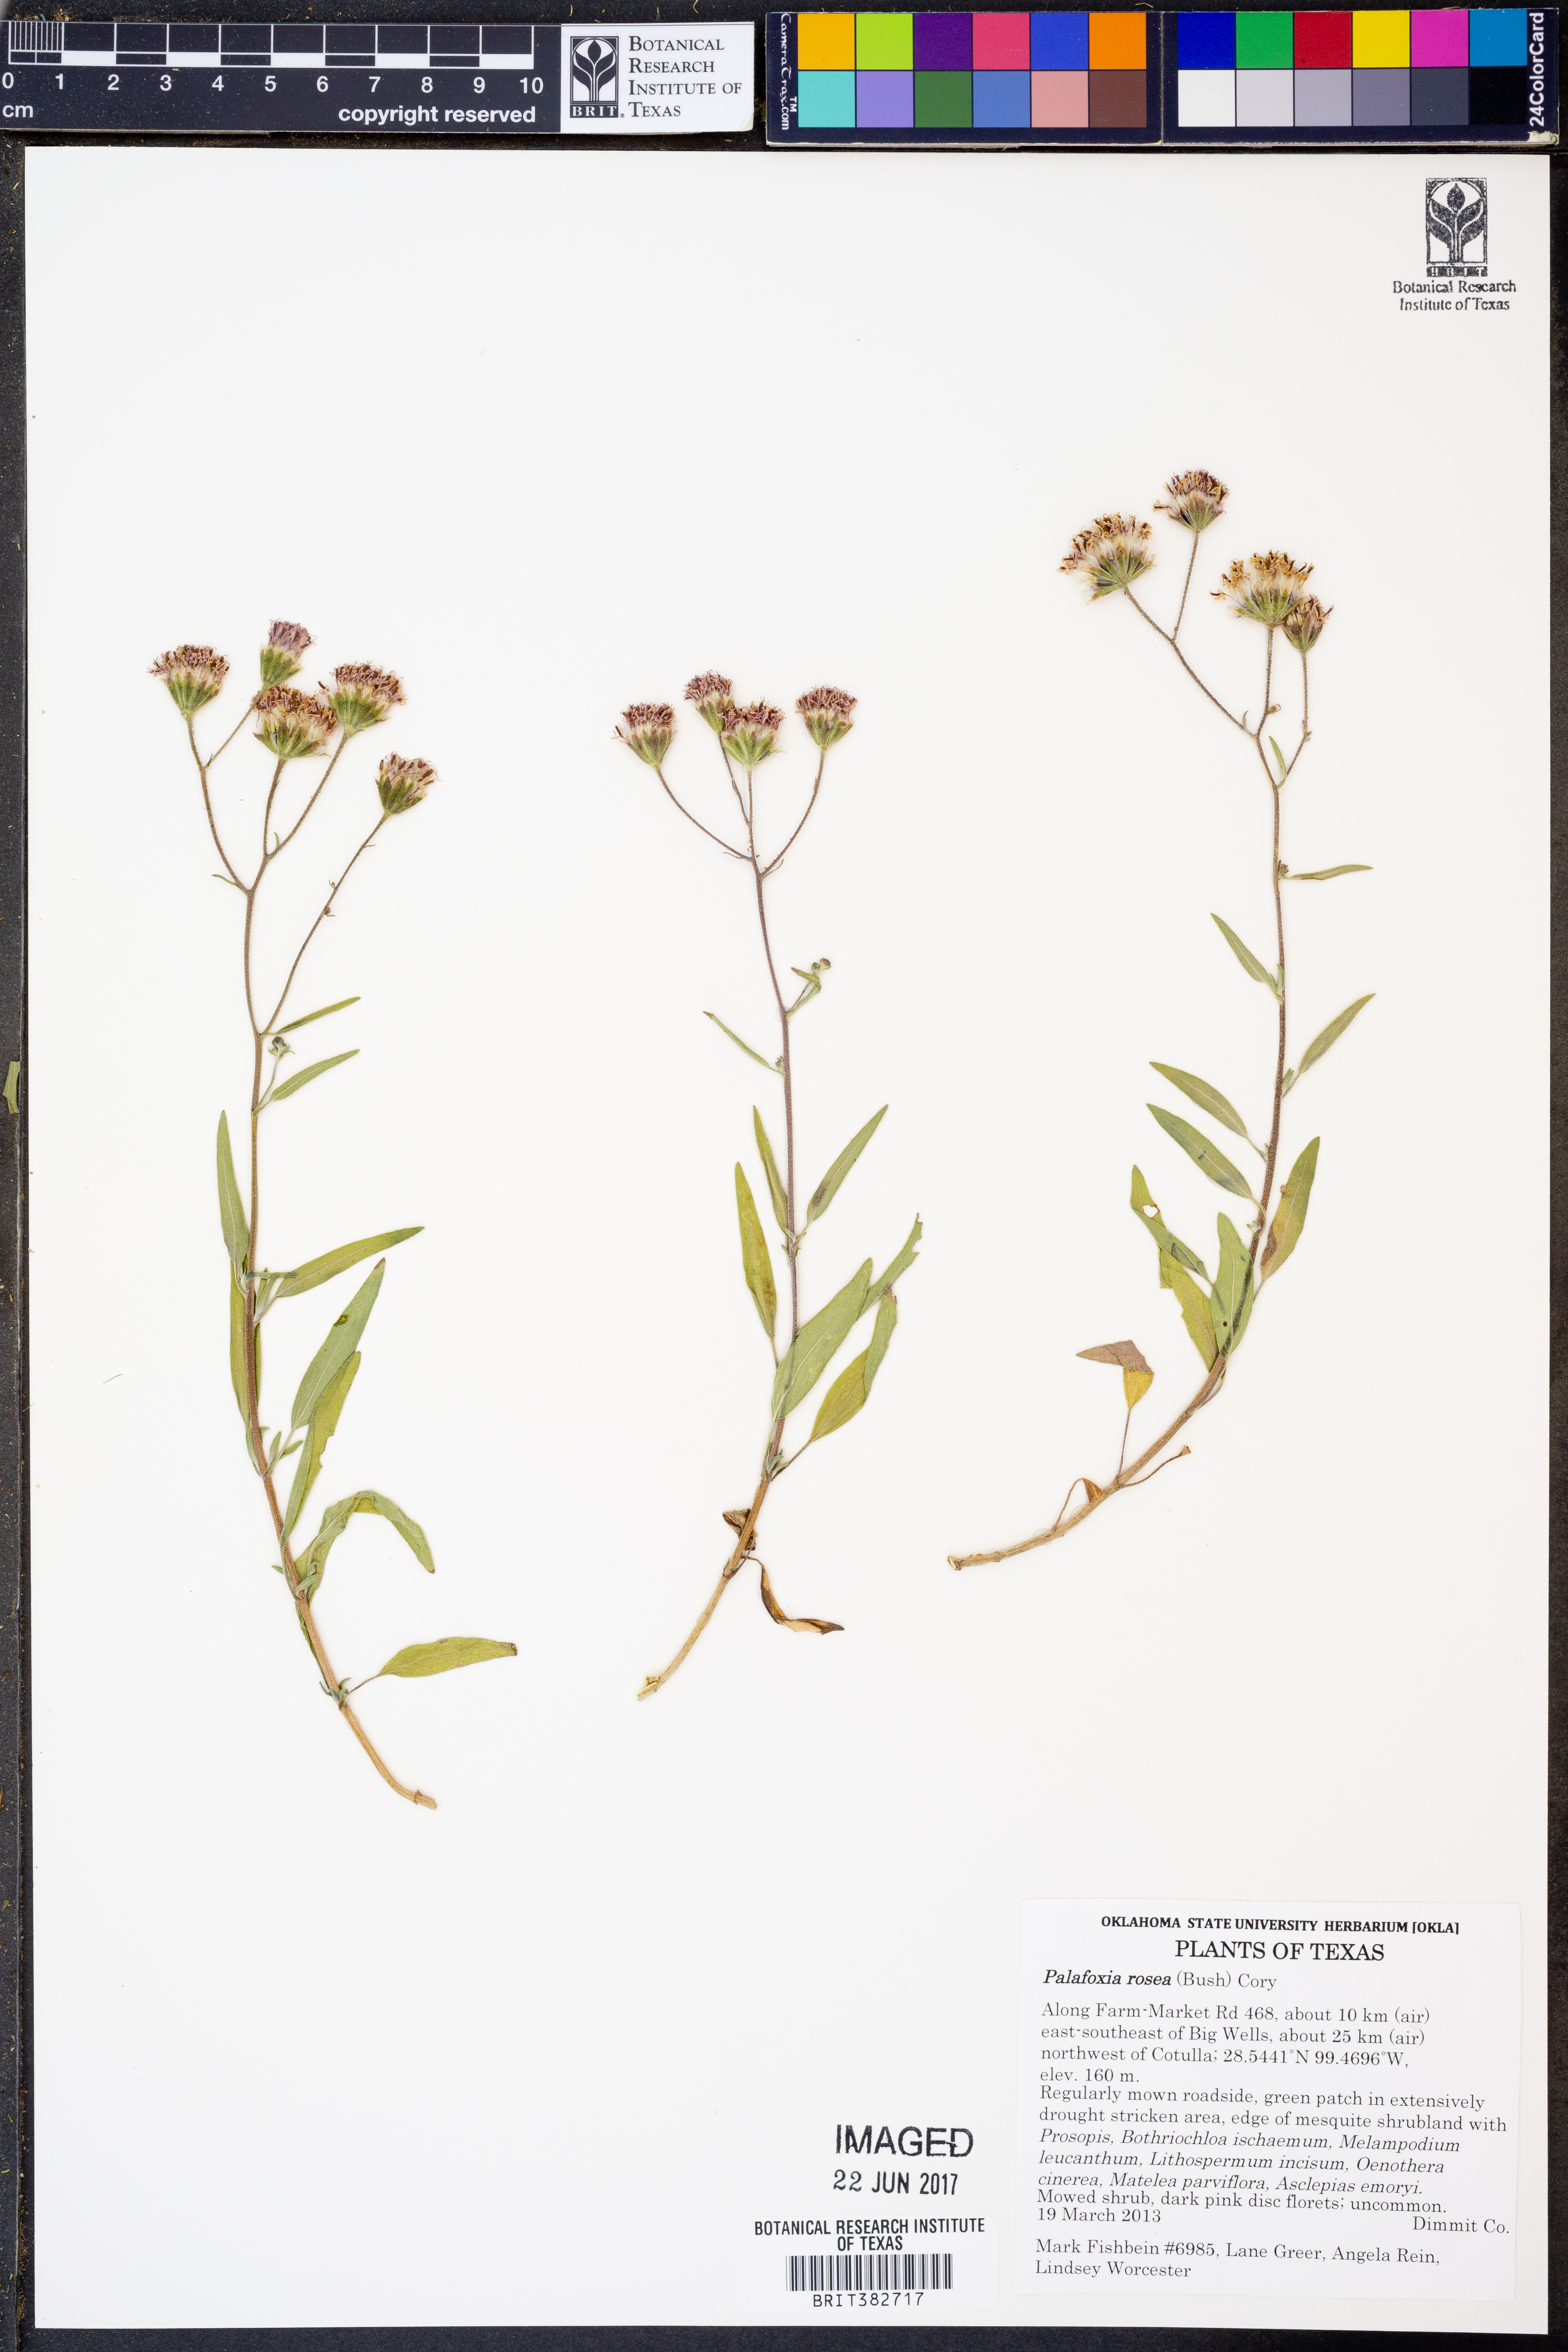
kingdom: Plantae
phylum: Tracheophyta
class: Magnoliopsida
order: Asterales
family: Asteraceae
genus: Palafoxia
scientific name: Palafoxia rosea
